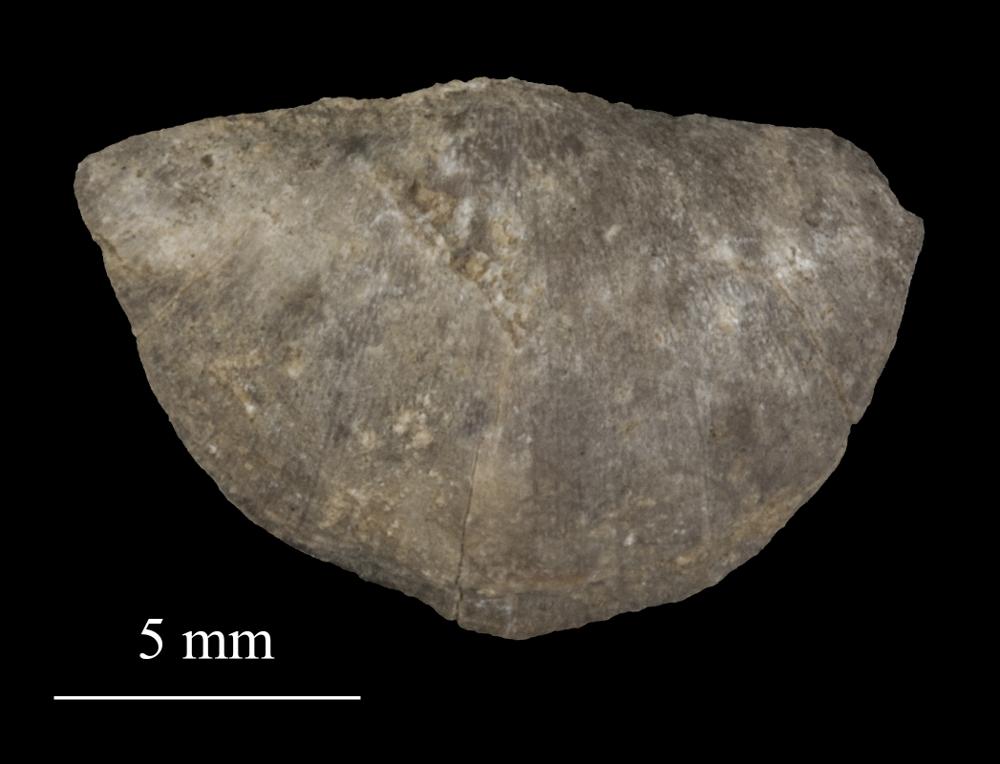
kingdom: Animalia
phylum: Brachiopoda
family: Sowerbyellidae
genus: Sowerbyella
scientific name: Sowerbyella
